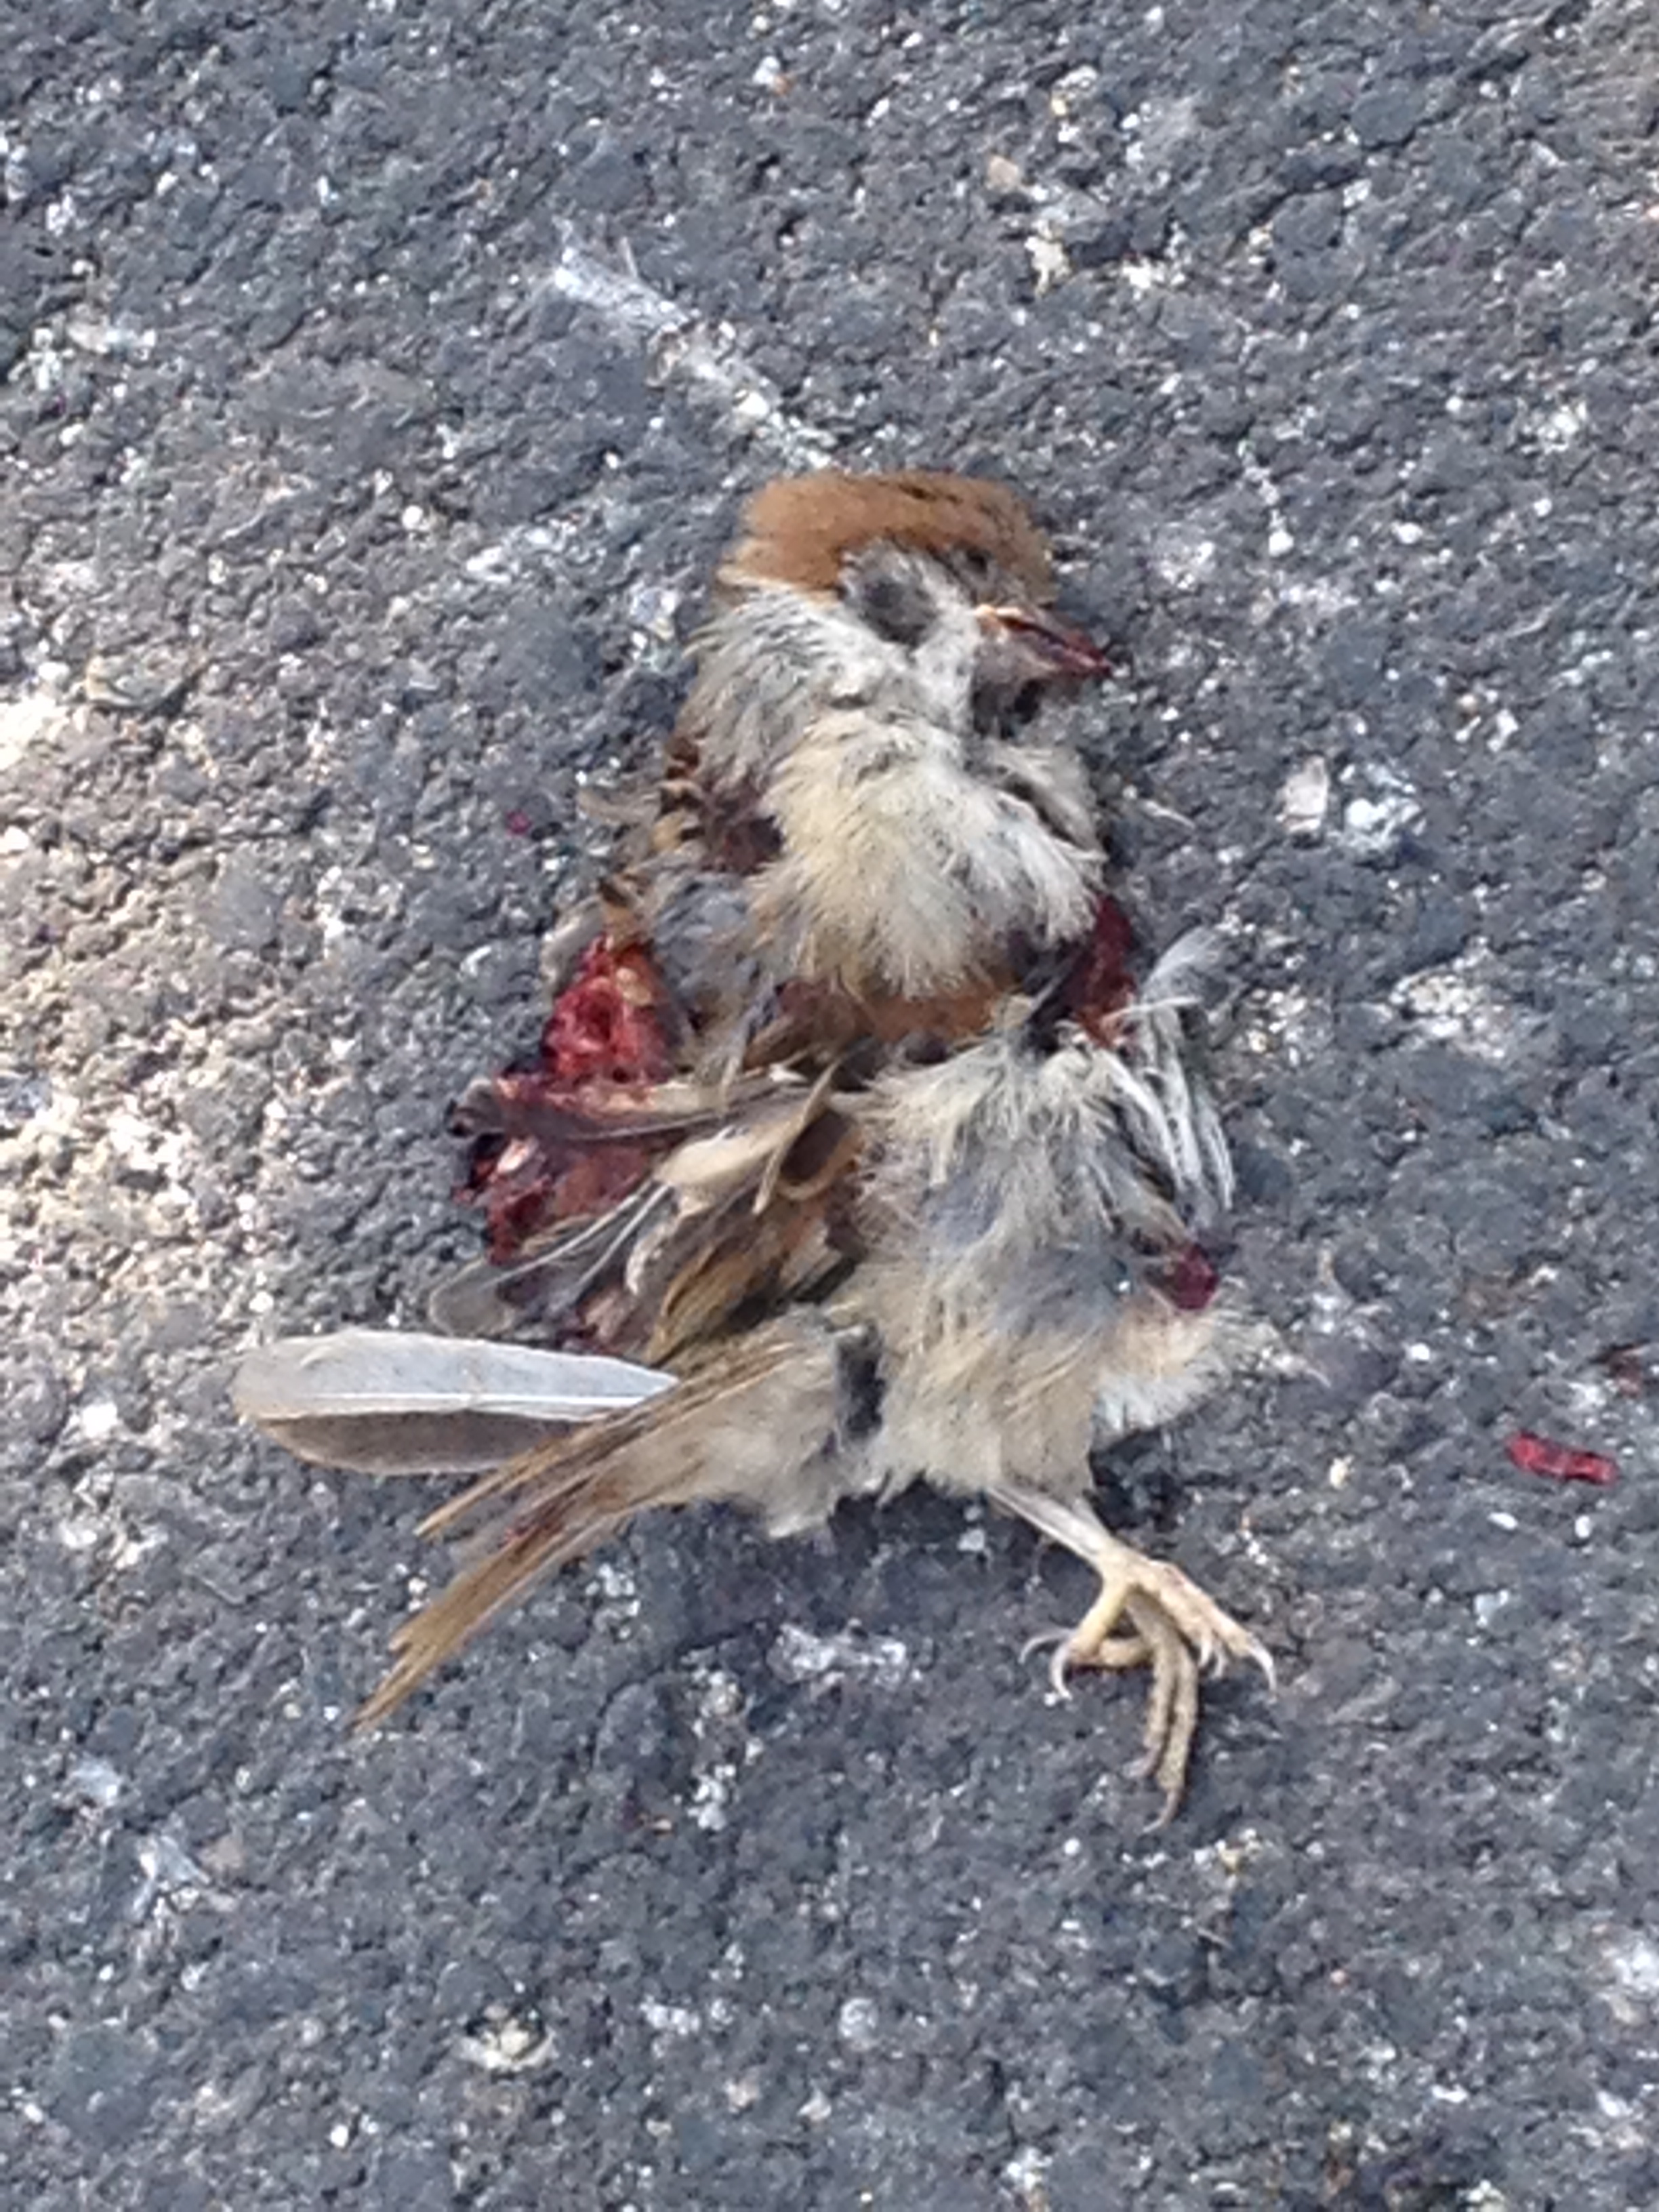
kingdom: Animalia
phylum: Chordata
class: Aves
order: Passeriformes
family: Passeridae
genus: Passer
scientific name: Passer montanus
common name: Eurasian tree sparrow
